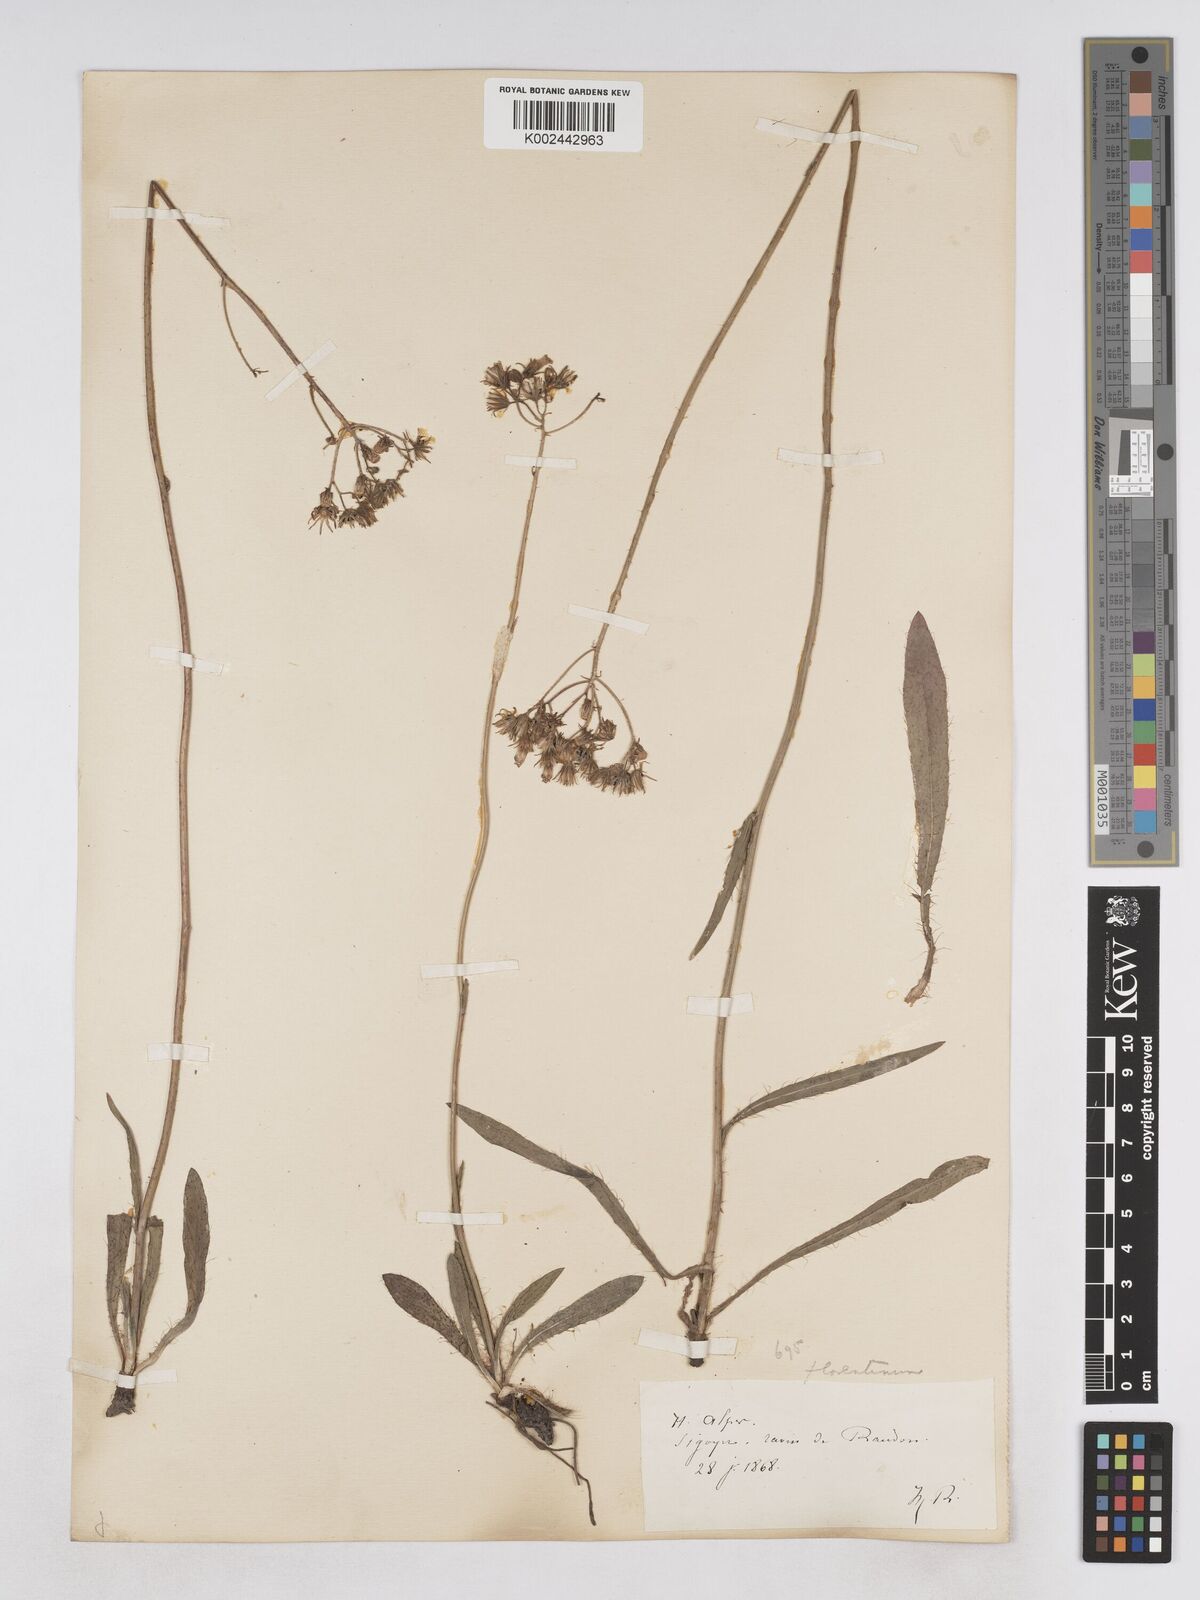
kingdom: Plantae
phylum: Tracheophyta
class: Magnoliopsida
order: Asterales
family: Asteraceae
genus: Pilosella
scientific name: Pilosella piloselloides
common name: Glaucous king-devil
